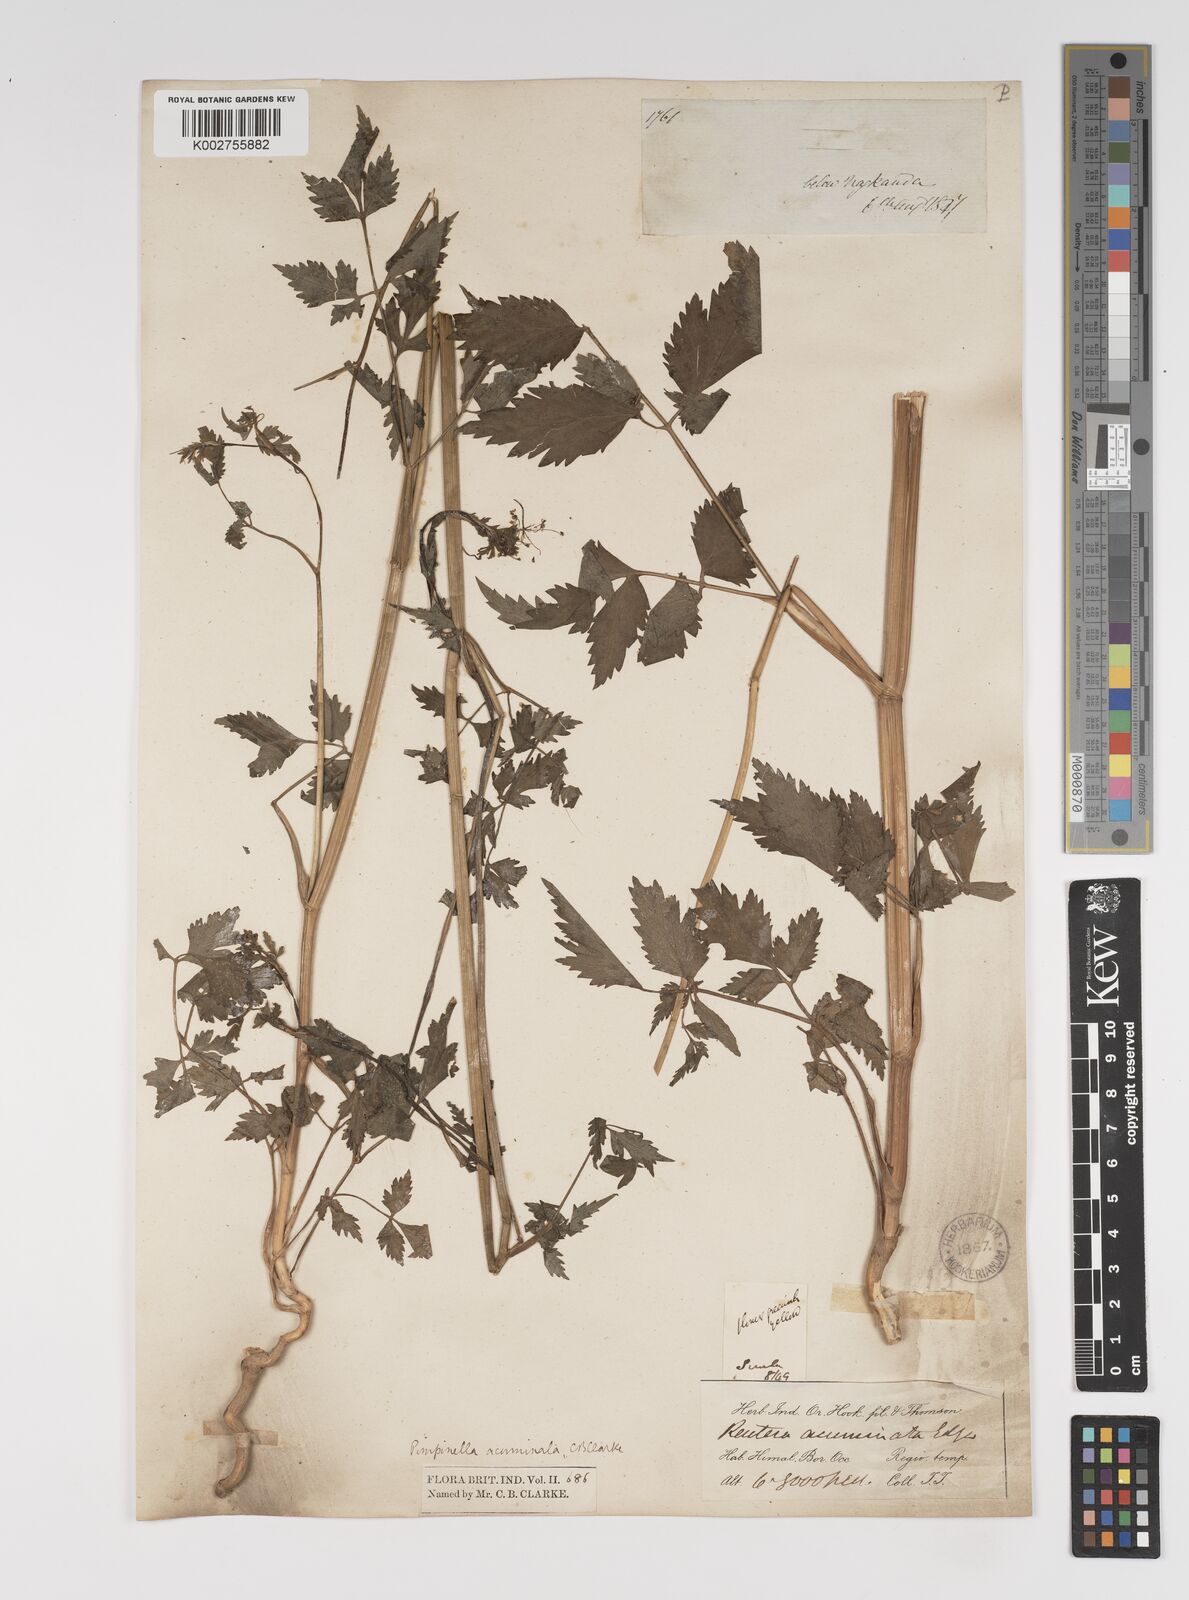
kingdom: Plantae
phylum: Tracheophyta
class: Magnoliopsida
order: Apiales
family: Apiaceae
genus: Pimpinella
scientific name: Pimpinella acuminata
